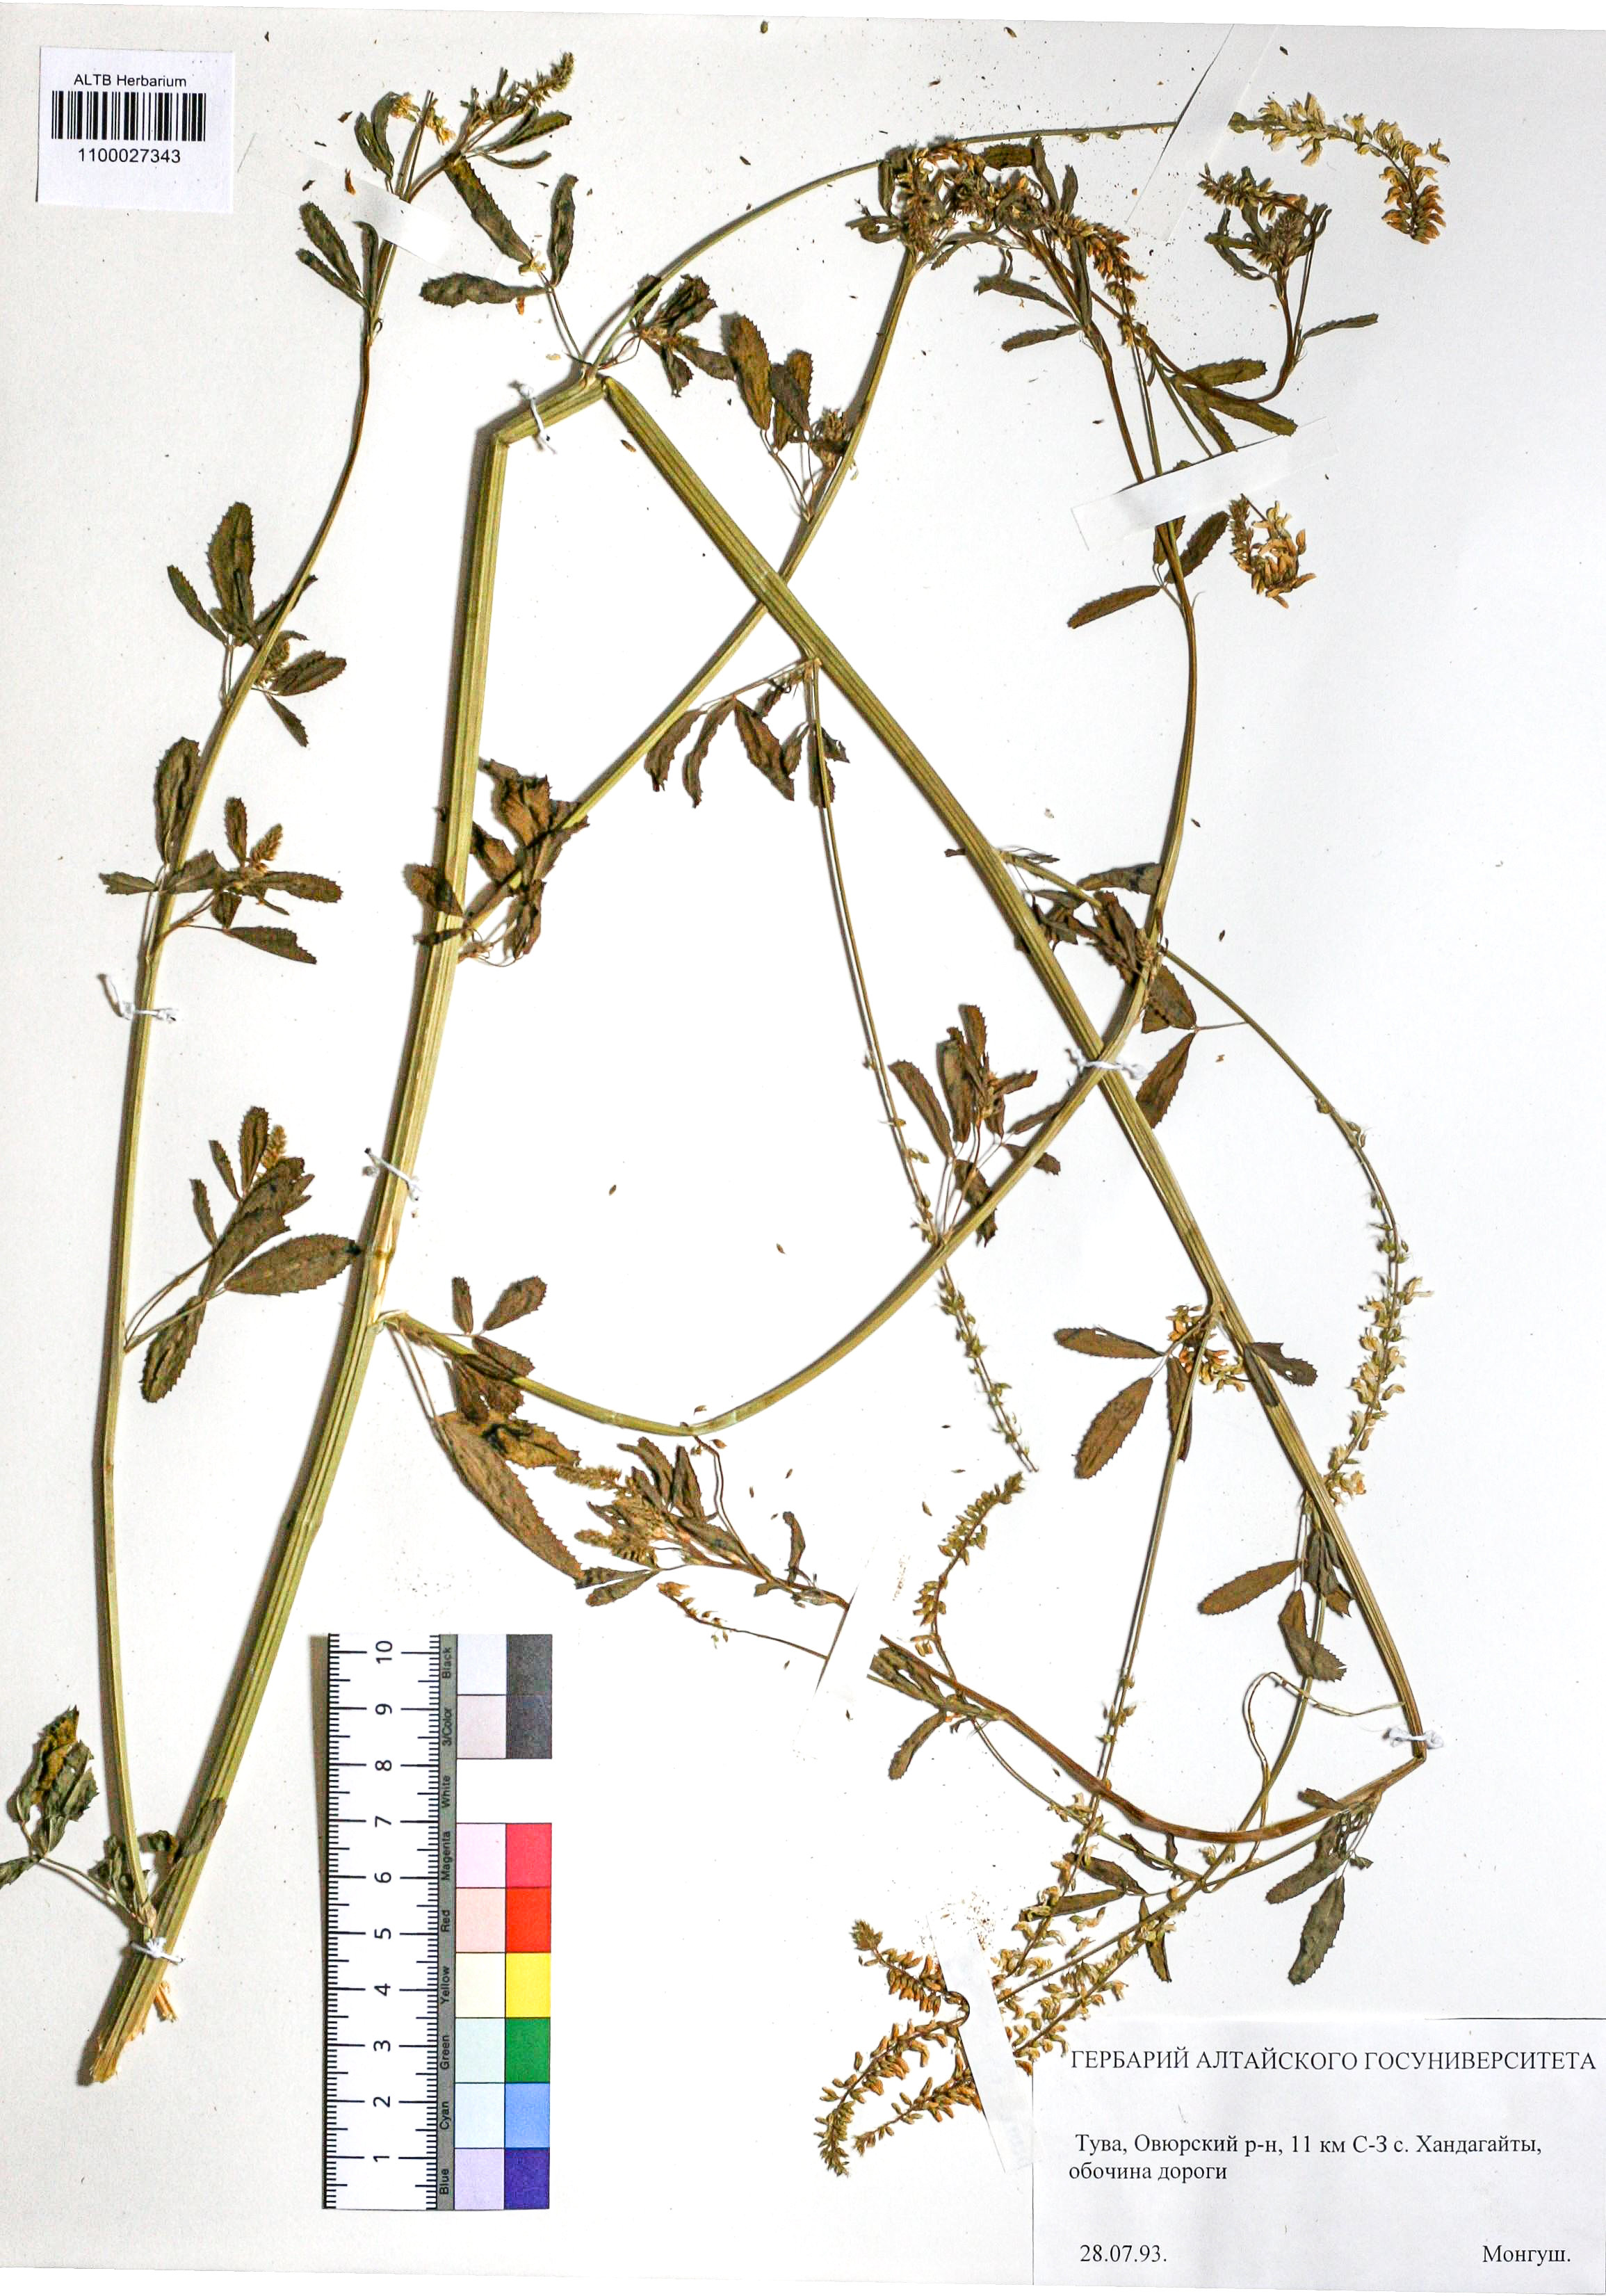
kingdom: Plantae
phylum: Tracheophyta
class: Magnoliopsida
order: Fabales
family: Fabaceae
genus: Melilotus
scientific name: Melilotus albus
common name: White melilot
